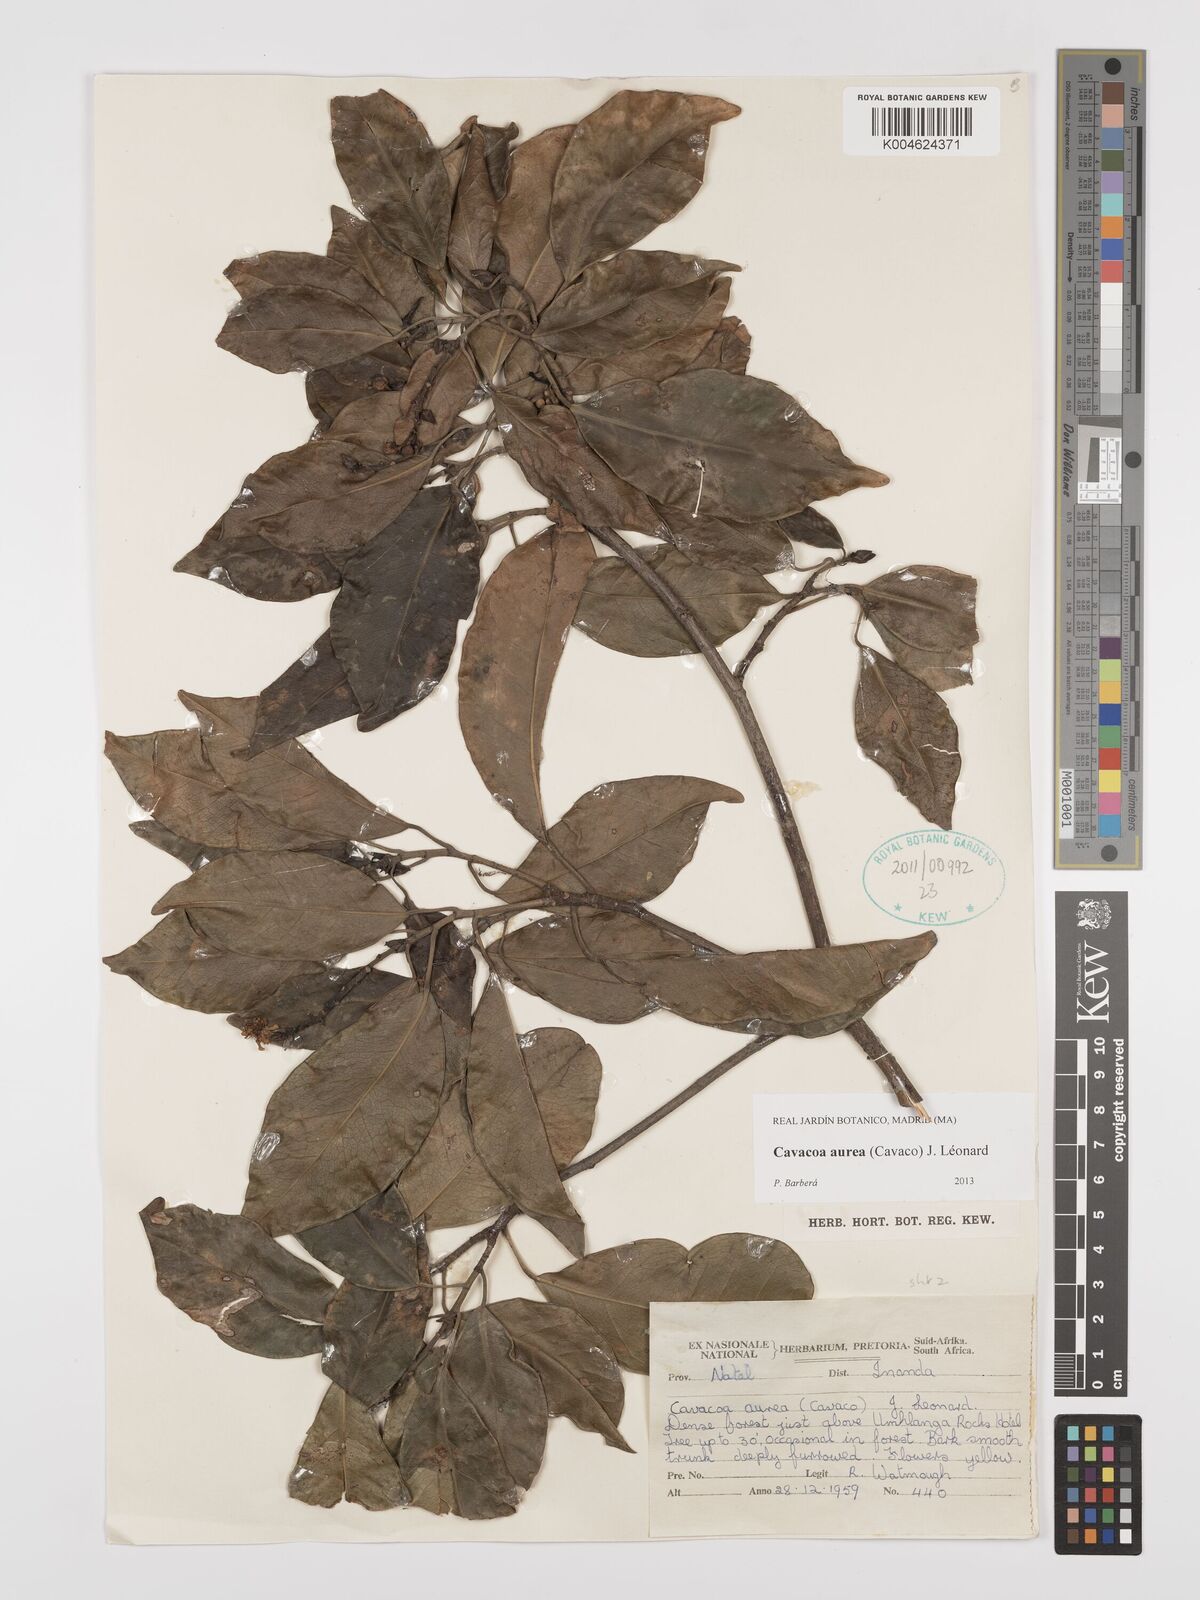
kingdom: Plantae
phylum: Tracheophyta
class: Magnoliopsida
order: Malpighiales
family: Euphorbiaceae
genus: Cavacoa
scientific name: Cavacoa aurea
